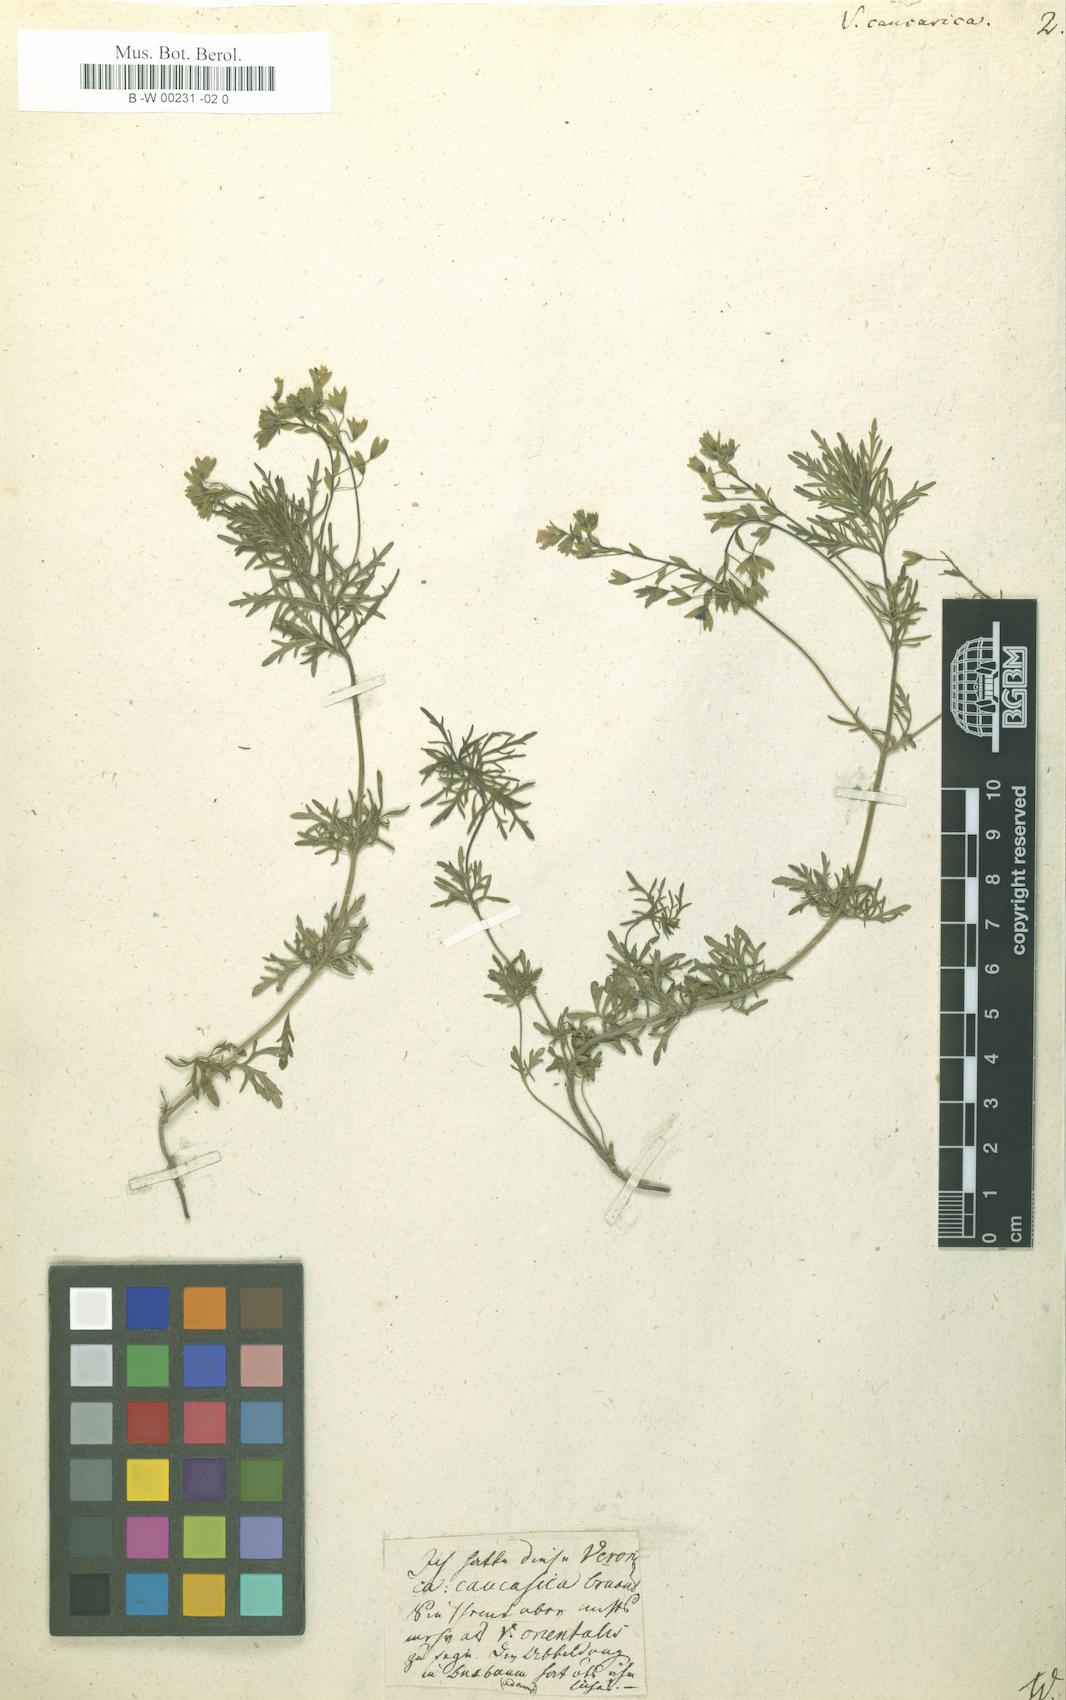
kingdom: Plantae
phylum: Tracheophyta
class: Magnoliopsida
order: Lamiales
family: Plantaginaceae
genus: Veronica
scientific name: Veronica caucasica
